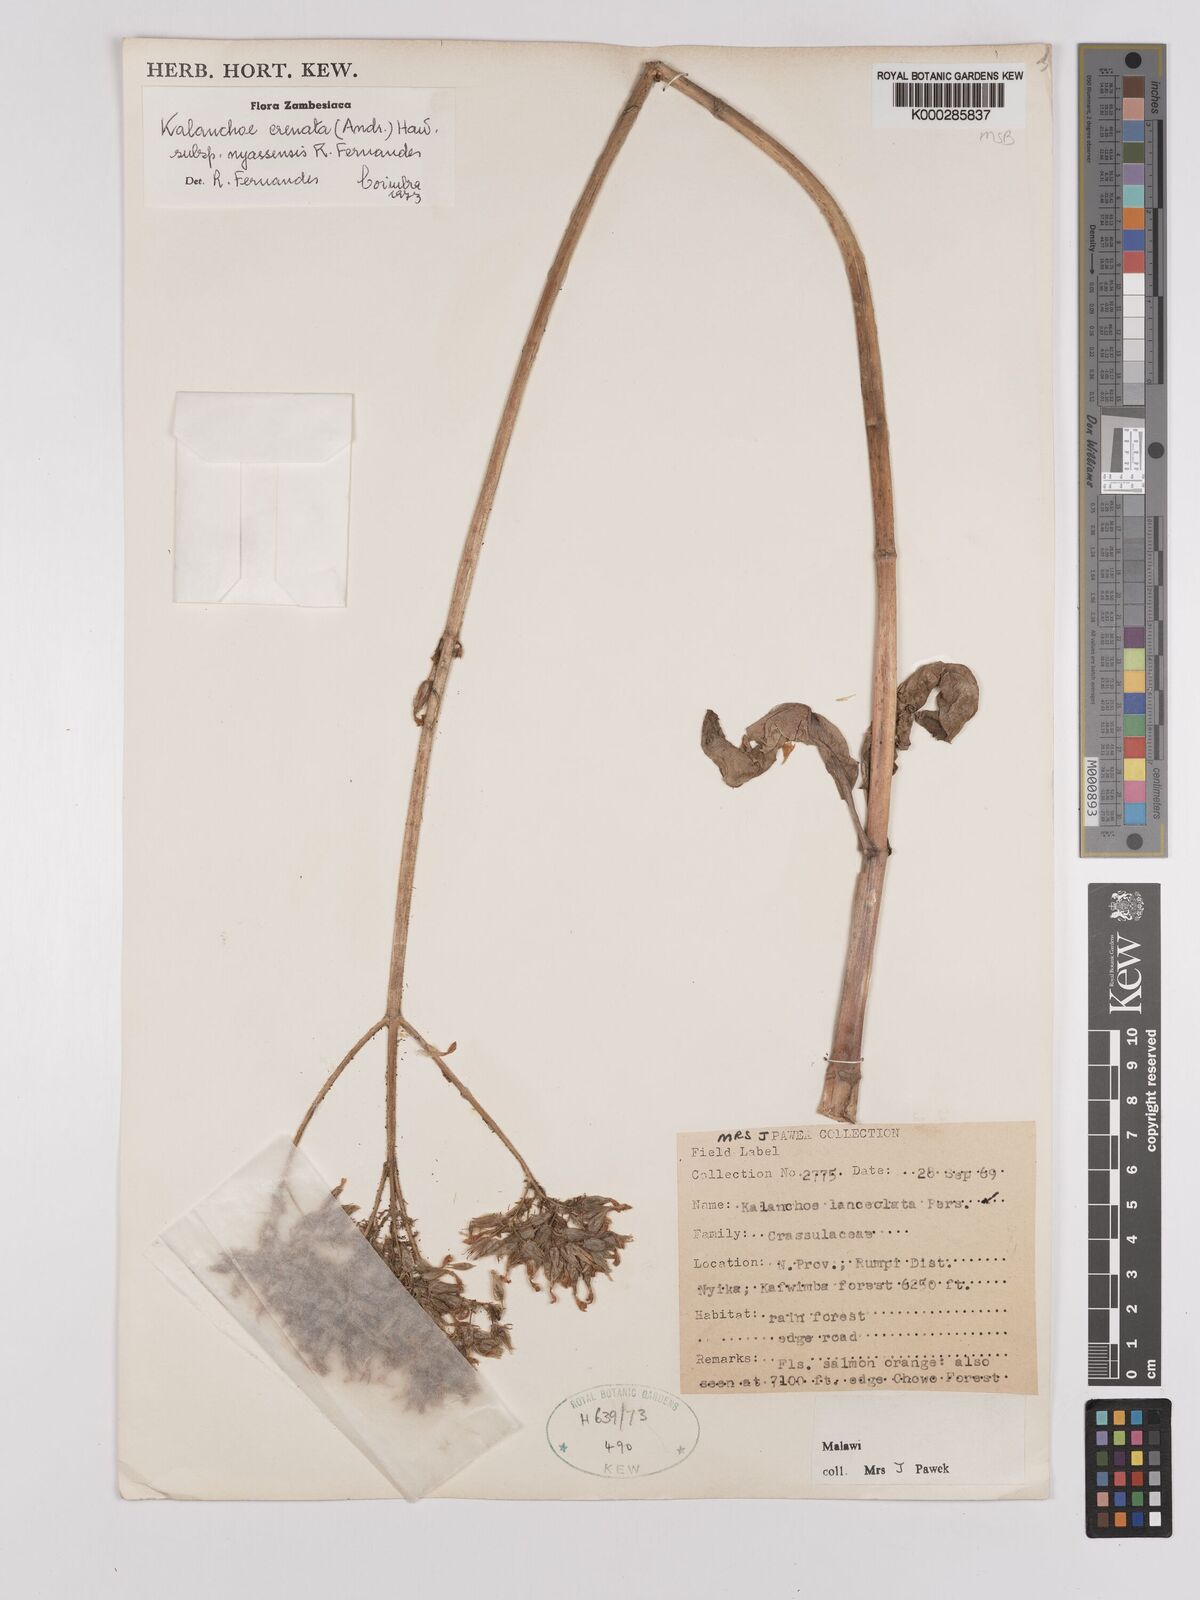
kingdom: Plantae
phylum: Tracheophyta
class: Magnoliopsida
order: Saxifragales
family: Crassulaceae
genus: Kalanchoe
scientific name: Kalanchoe crenata
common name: Neverdie
